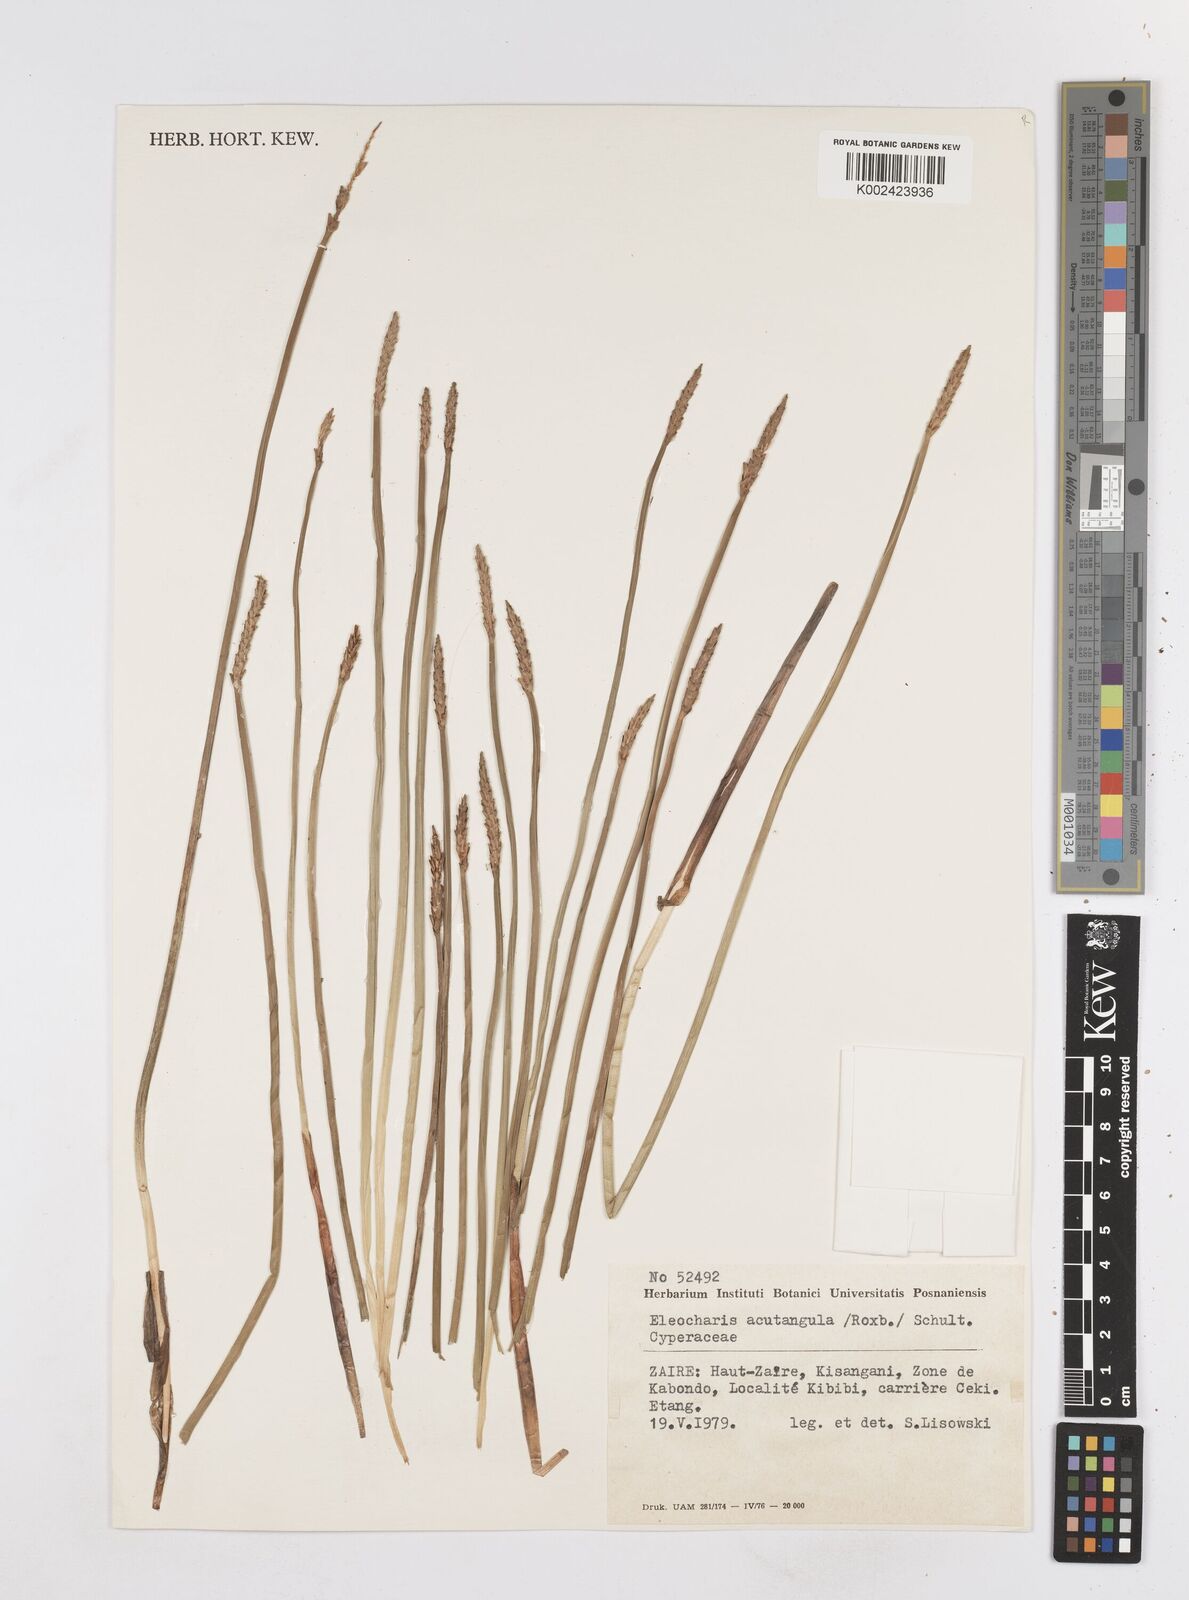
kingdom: Plantae
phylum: Tracheophyta
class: Liliopsida
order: Poales
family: Cyperaceae
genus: Eleocharis
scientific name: Eleocharis acutangula
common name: Acute spikerush
